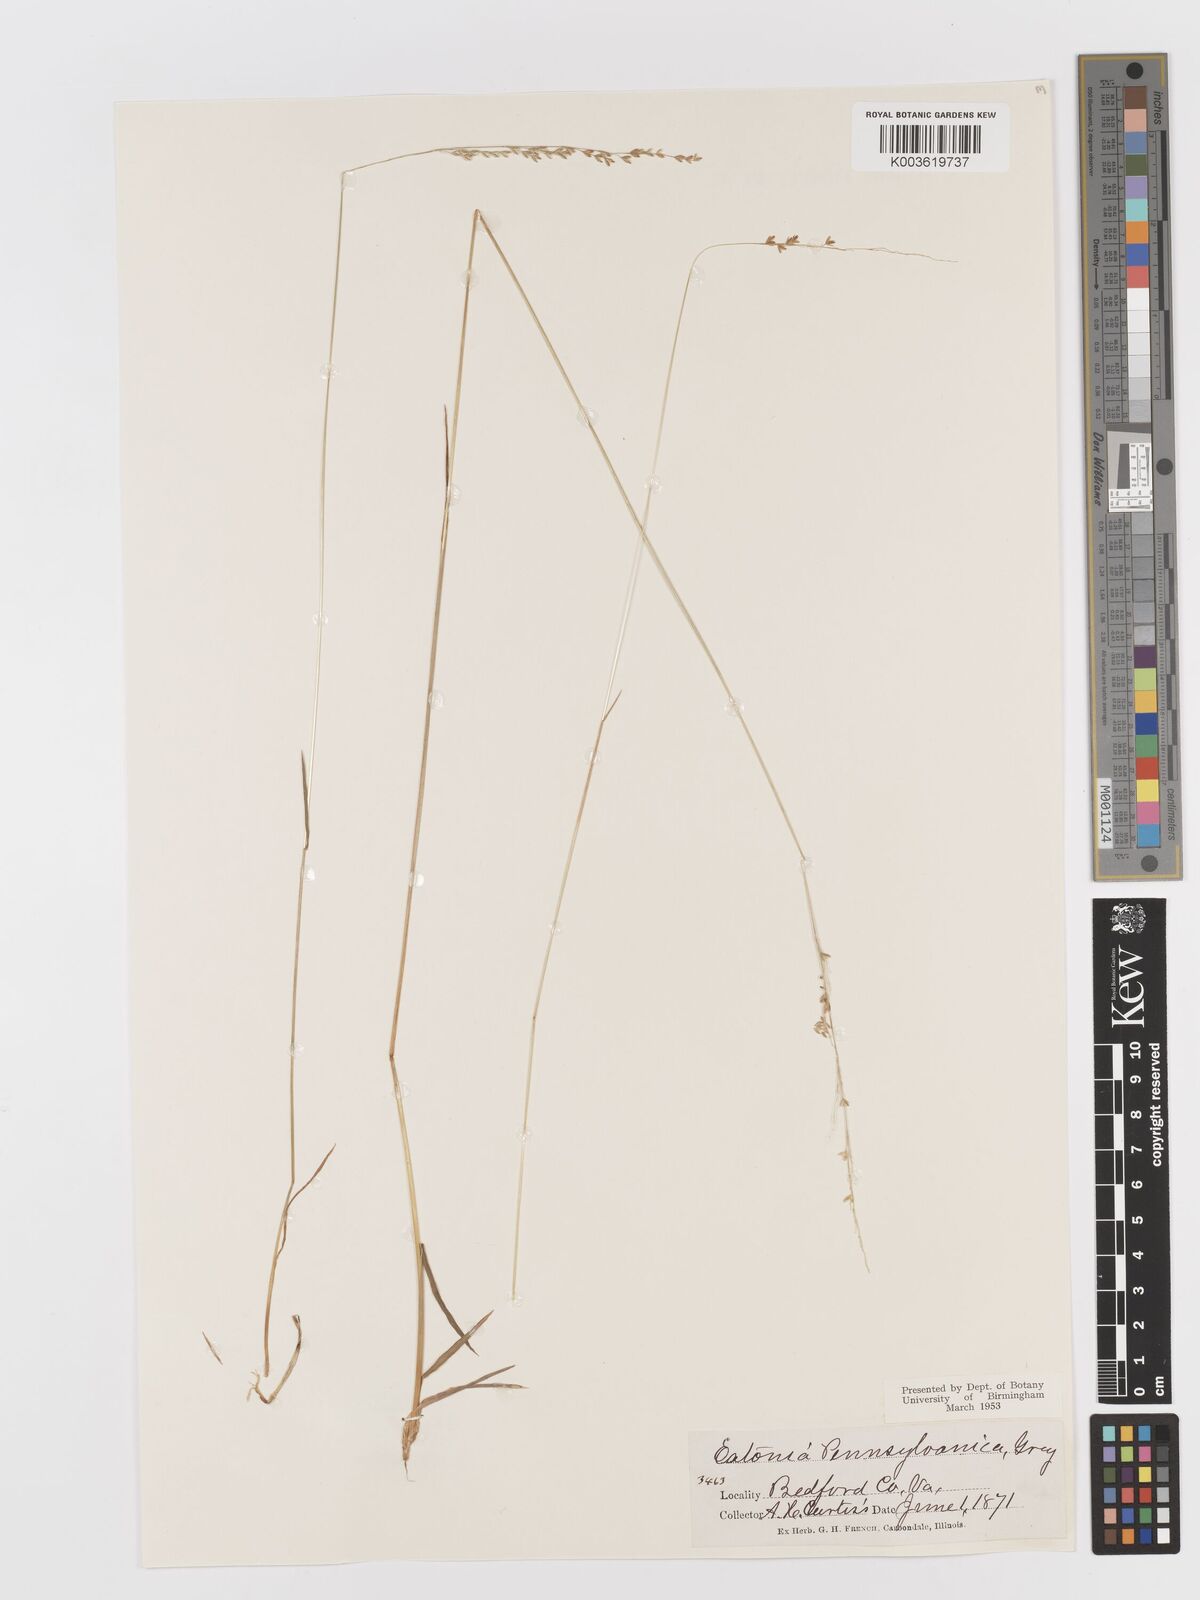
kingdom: Plantae
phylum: Tracheophyta
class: Liliopsida
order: Poales
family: Poaceae
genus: Sphenopholis
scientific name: Sphenopholis nitida
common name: Shiny wedgegrass
